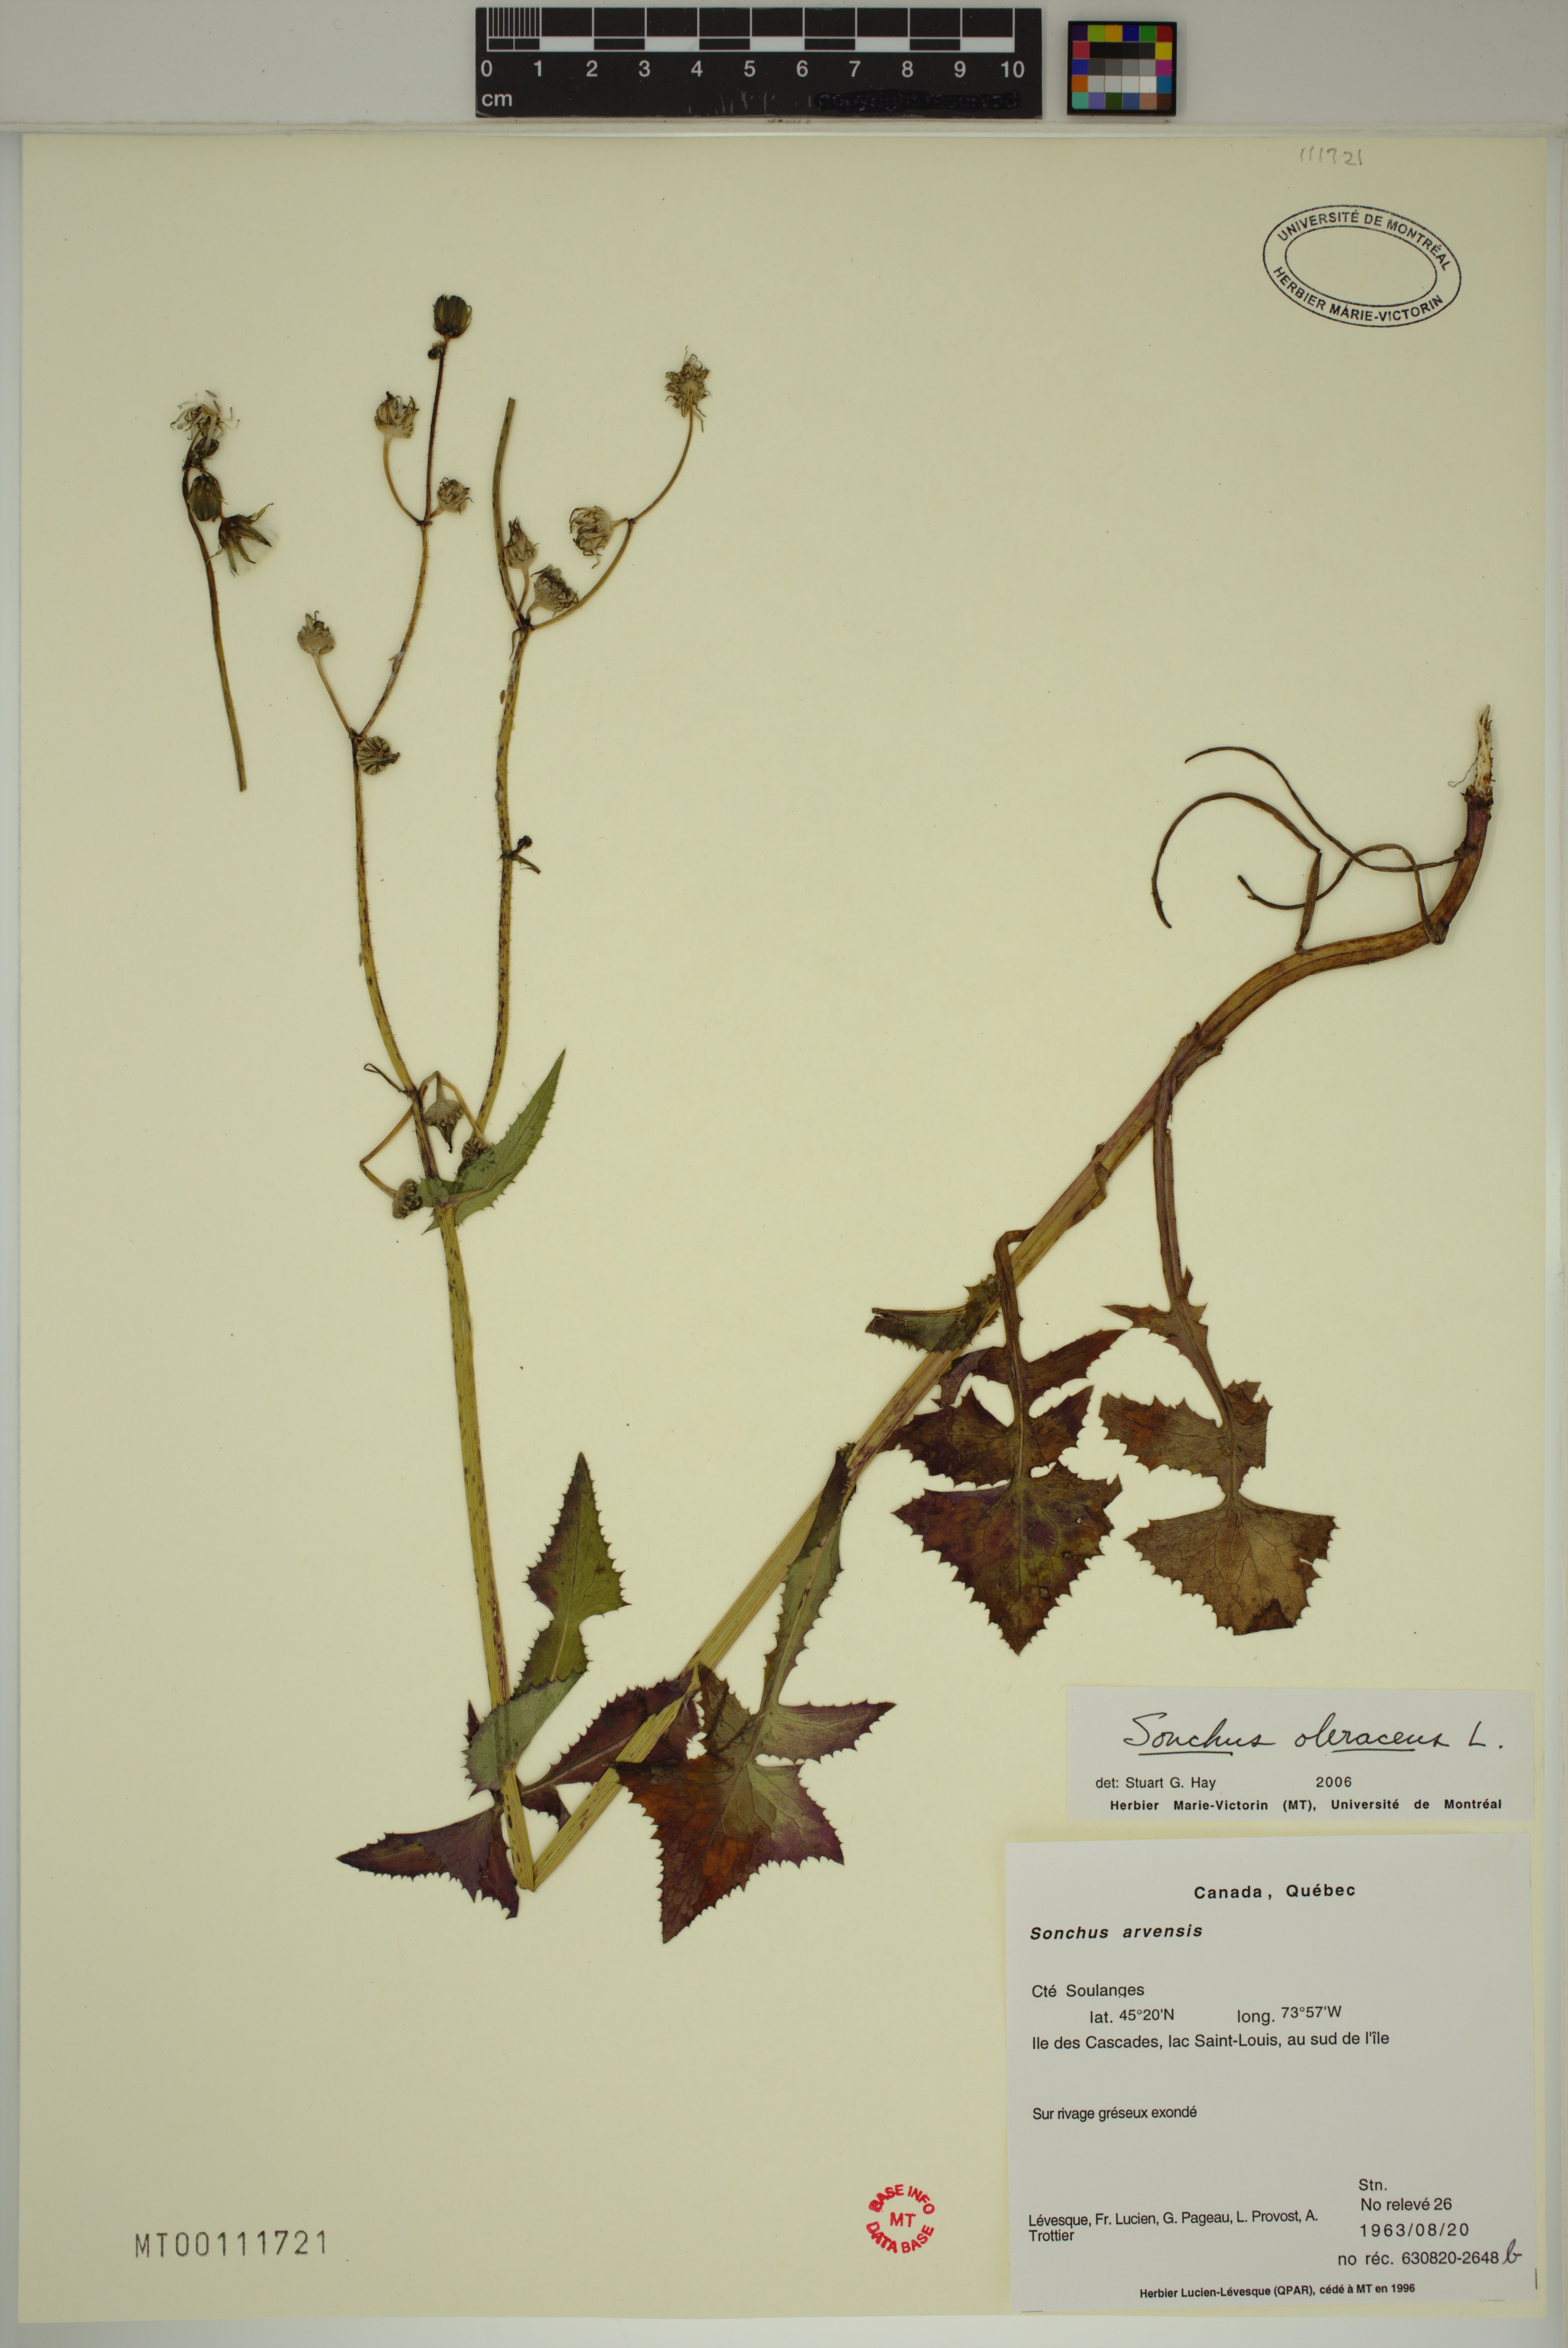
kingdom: Plantae
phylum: Tracheophyta
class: Magnoliopsida
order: Asterales
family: Asteraceae
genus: Sonchus
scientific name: Sonchus oleraceus
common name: Common sowthistle
